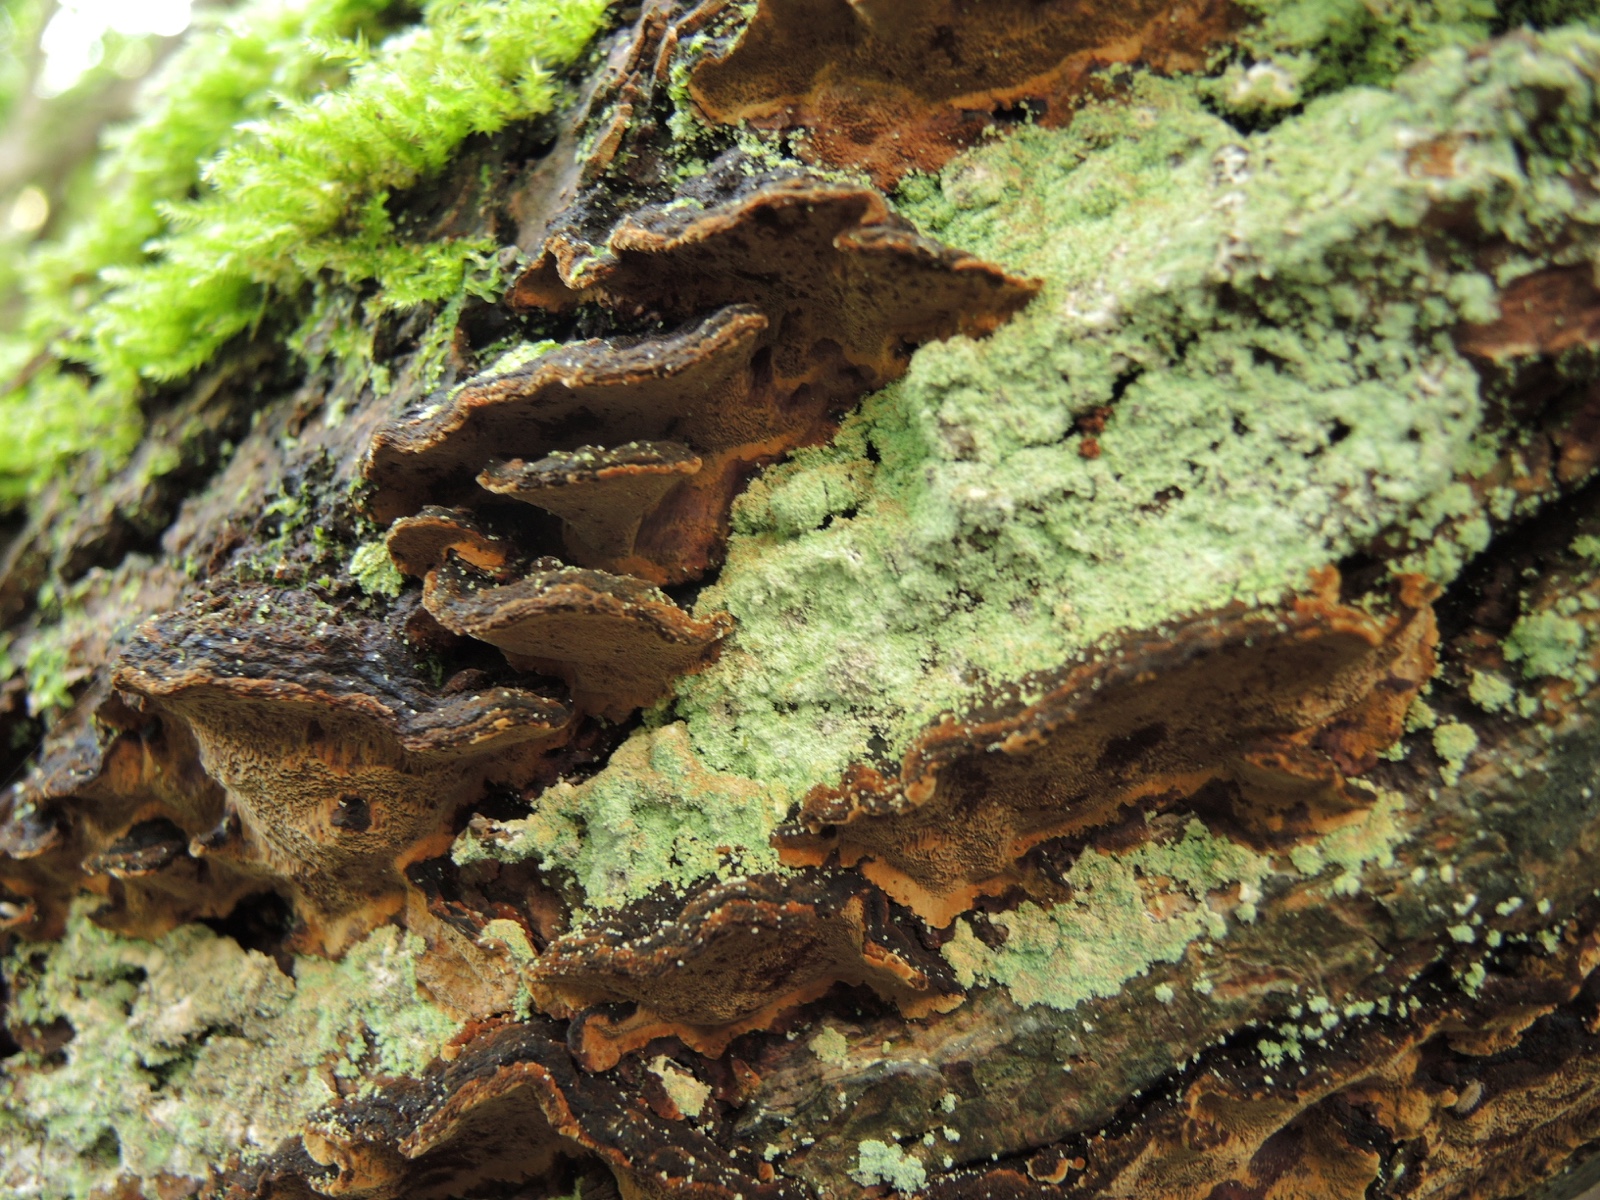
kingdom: Fungi
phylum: Basidiomycota
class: Agaricomycetes
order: Hymenochaetales
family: Hymenochaetaceae
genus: Phellinopsis
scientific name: Phellinopsis conchata
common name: pile-ildporesvamp
